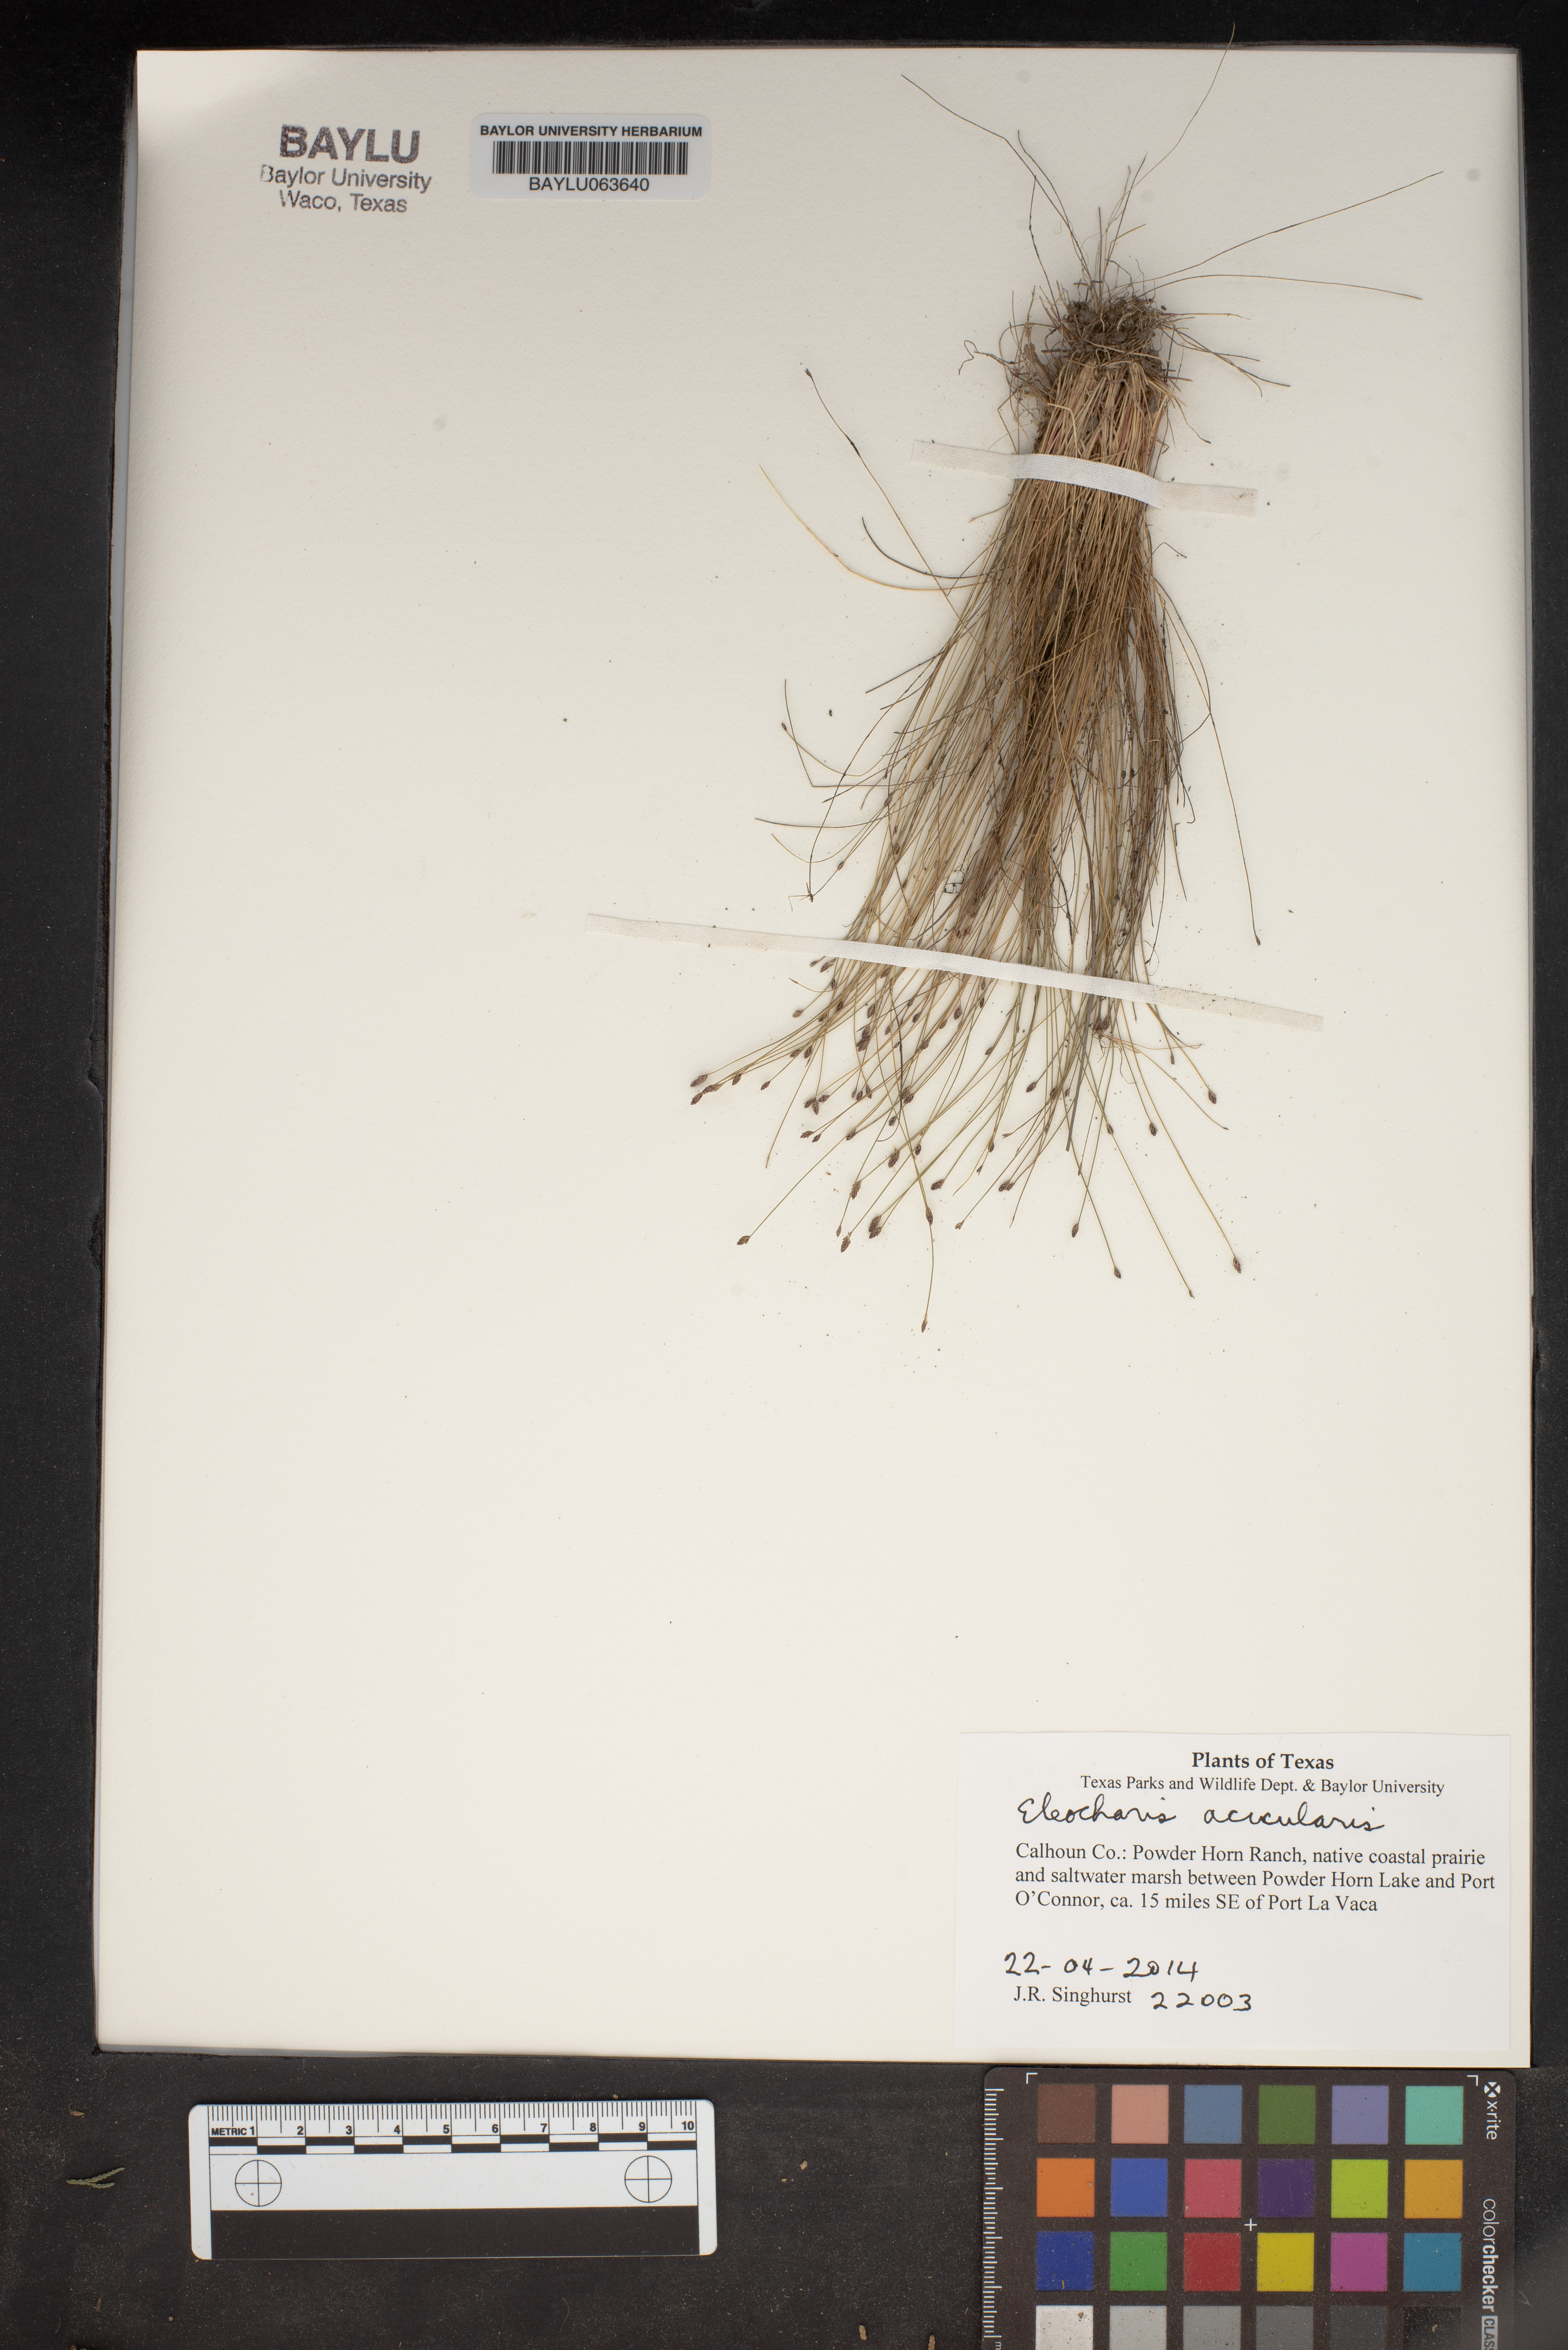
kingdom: Plantae
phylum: Tracheophyta
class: Liliopsida
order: Poales
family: Cyperaceae
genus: Eleocharis
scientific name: Eleocharis acicularis
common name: Needle spike-rush
